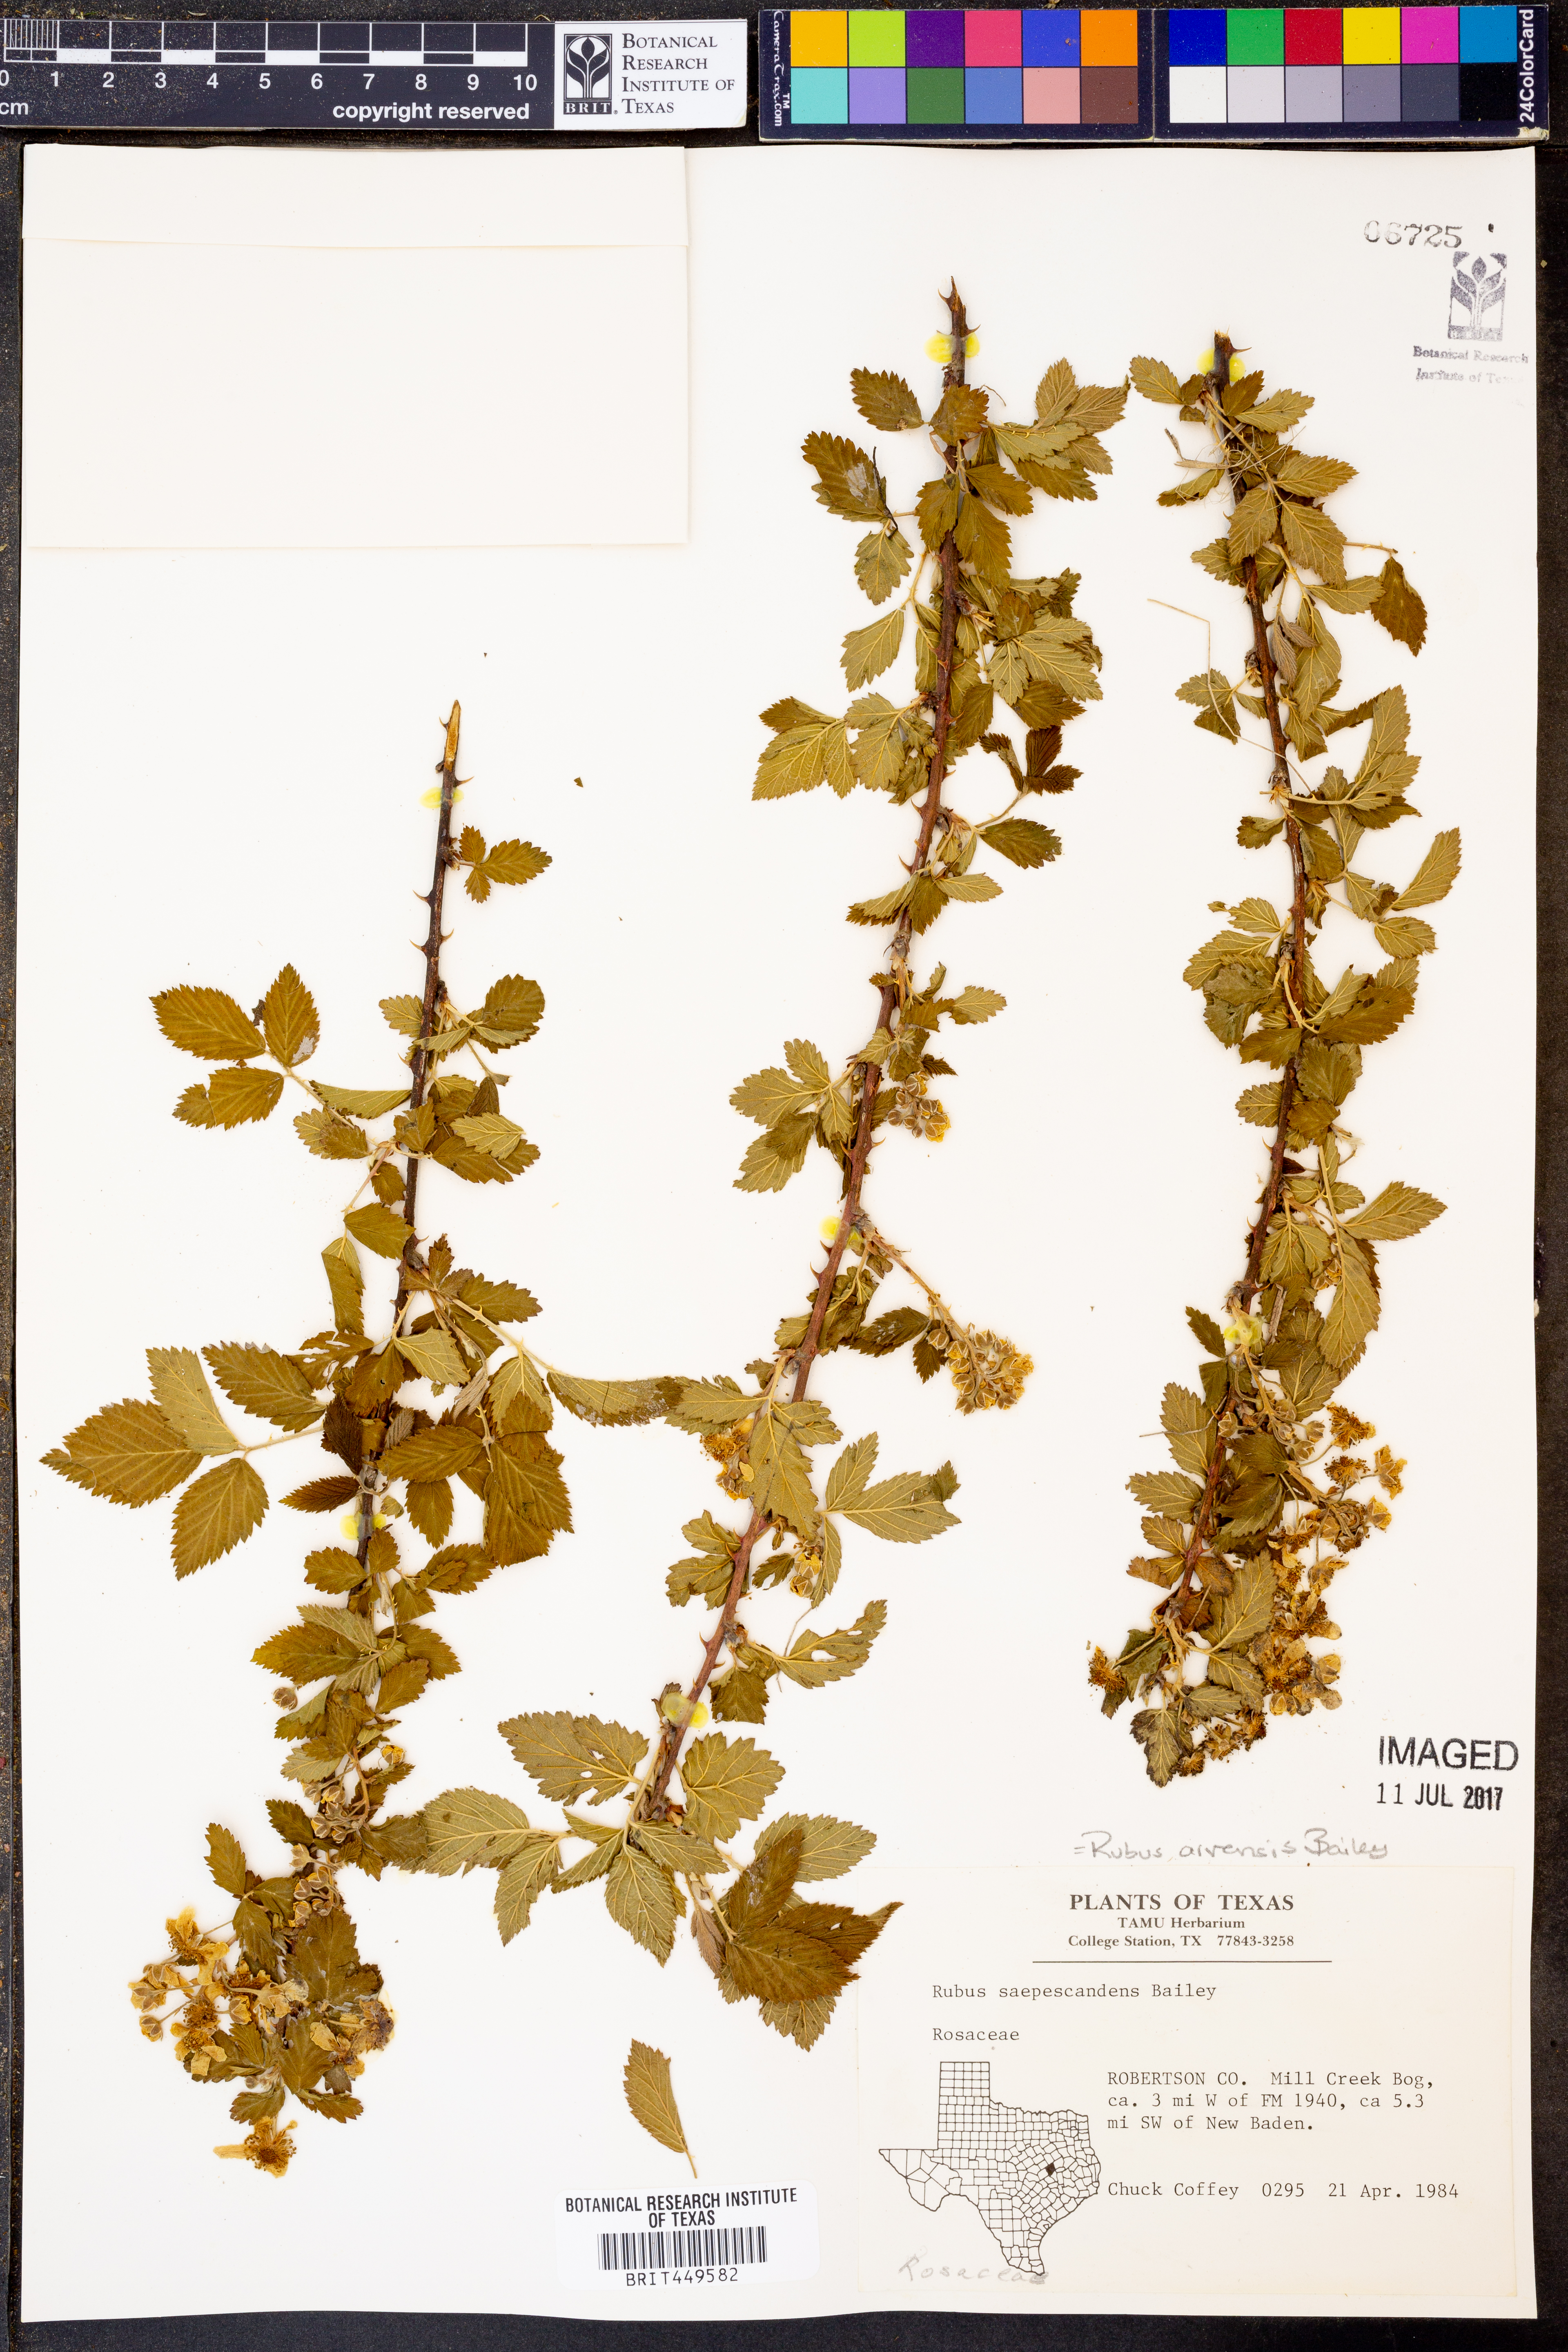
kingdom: Plantae
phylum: Tracheophyta
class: Magnoliopsida
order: Rosales
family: Rosaceae
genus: Rubus
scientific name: Rubus arvensis
